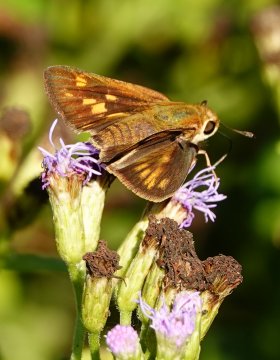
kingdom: Animalia
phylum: Arthropoda
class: Insecta
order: Lepidoptera
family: Hesperiidae
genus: Hylephila
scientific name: Hylephila phyleus
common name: Fiery Skipper
